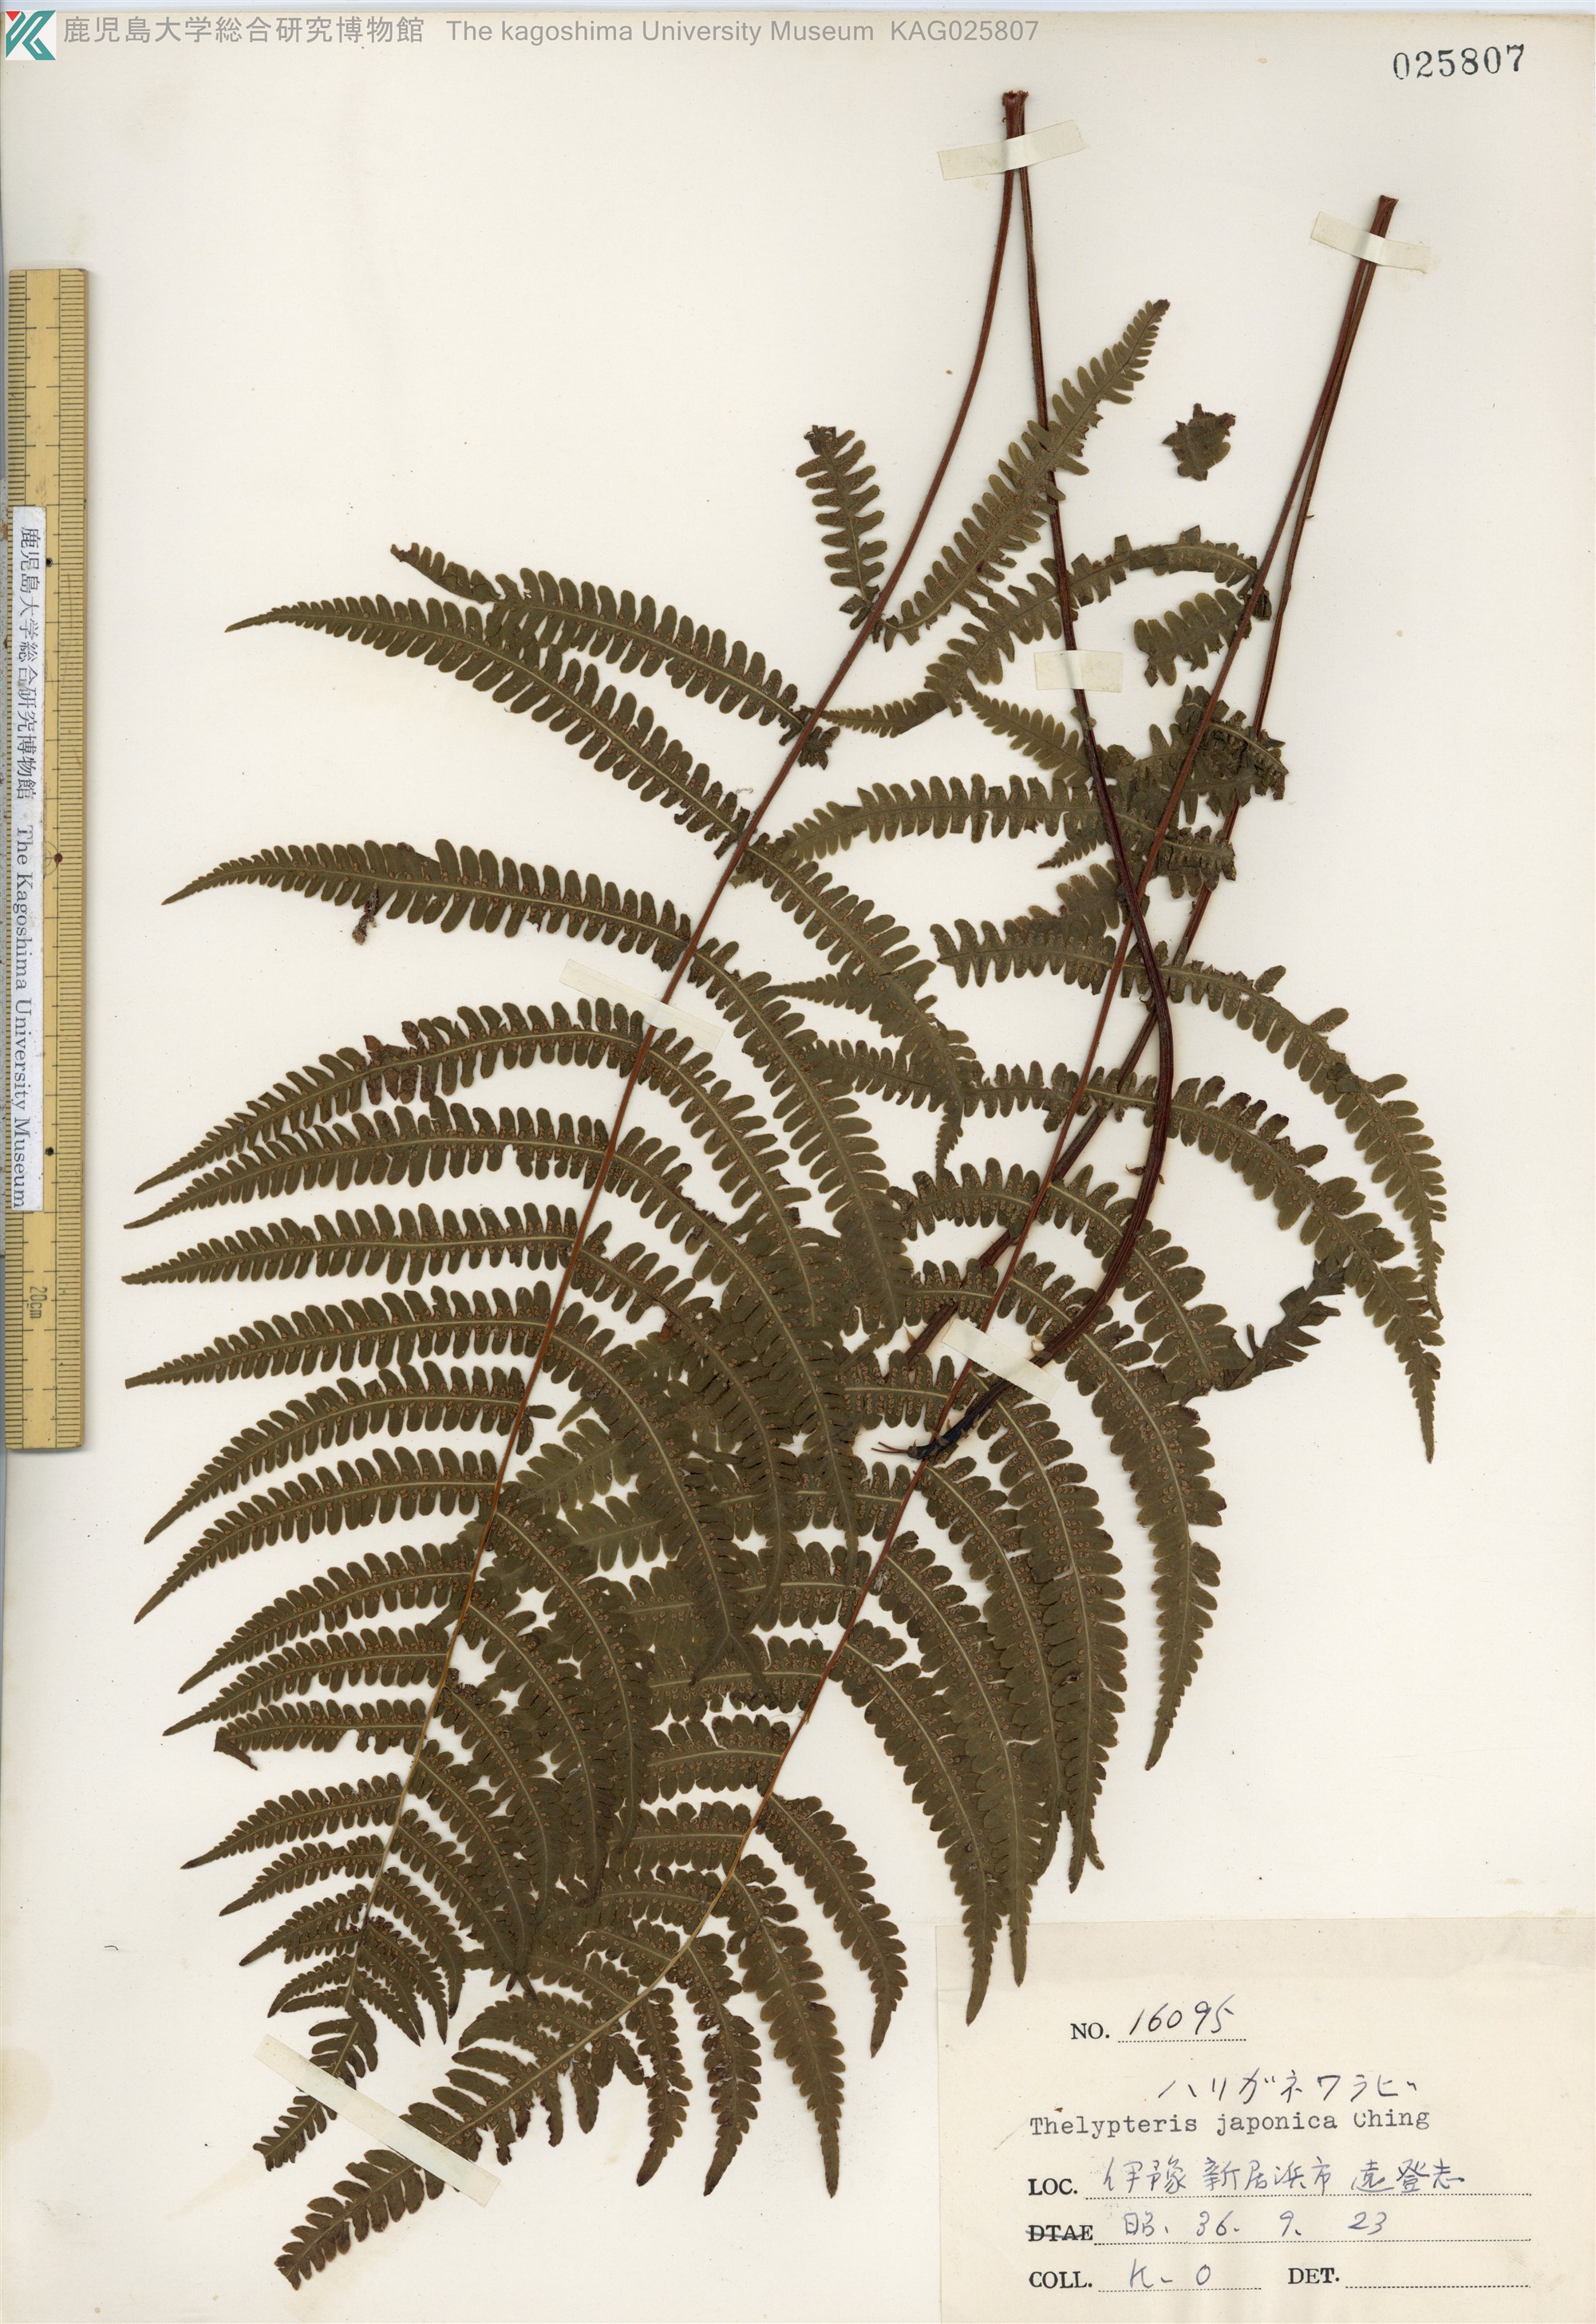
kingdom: Plantae
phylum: Tracheophyta
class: Polypodiopsida
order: Polypodiales
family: Thelypteridaceae
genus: Coryphopteris
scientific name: Coryphopteris japonica
